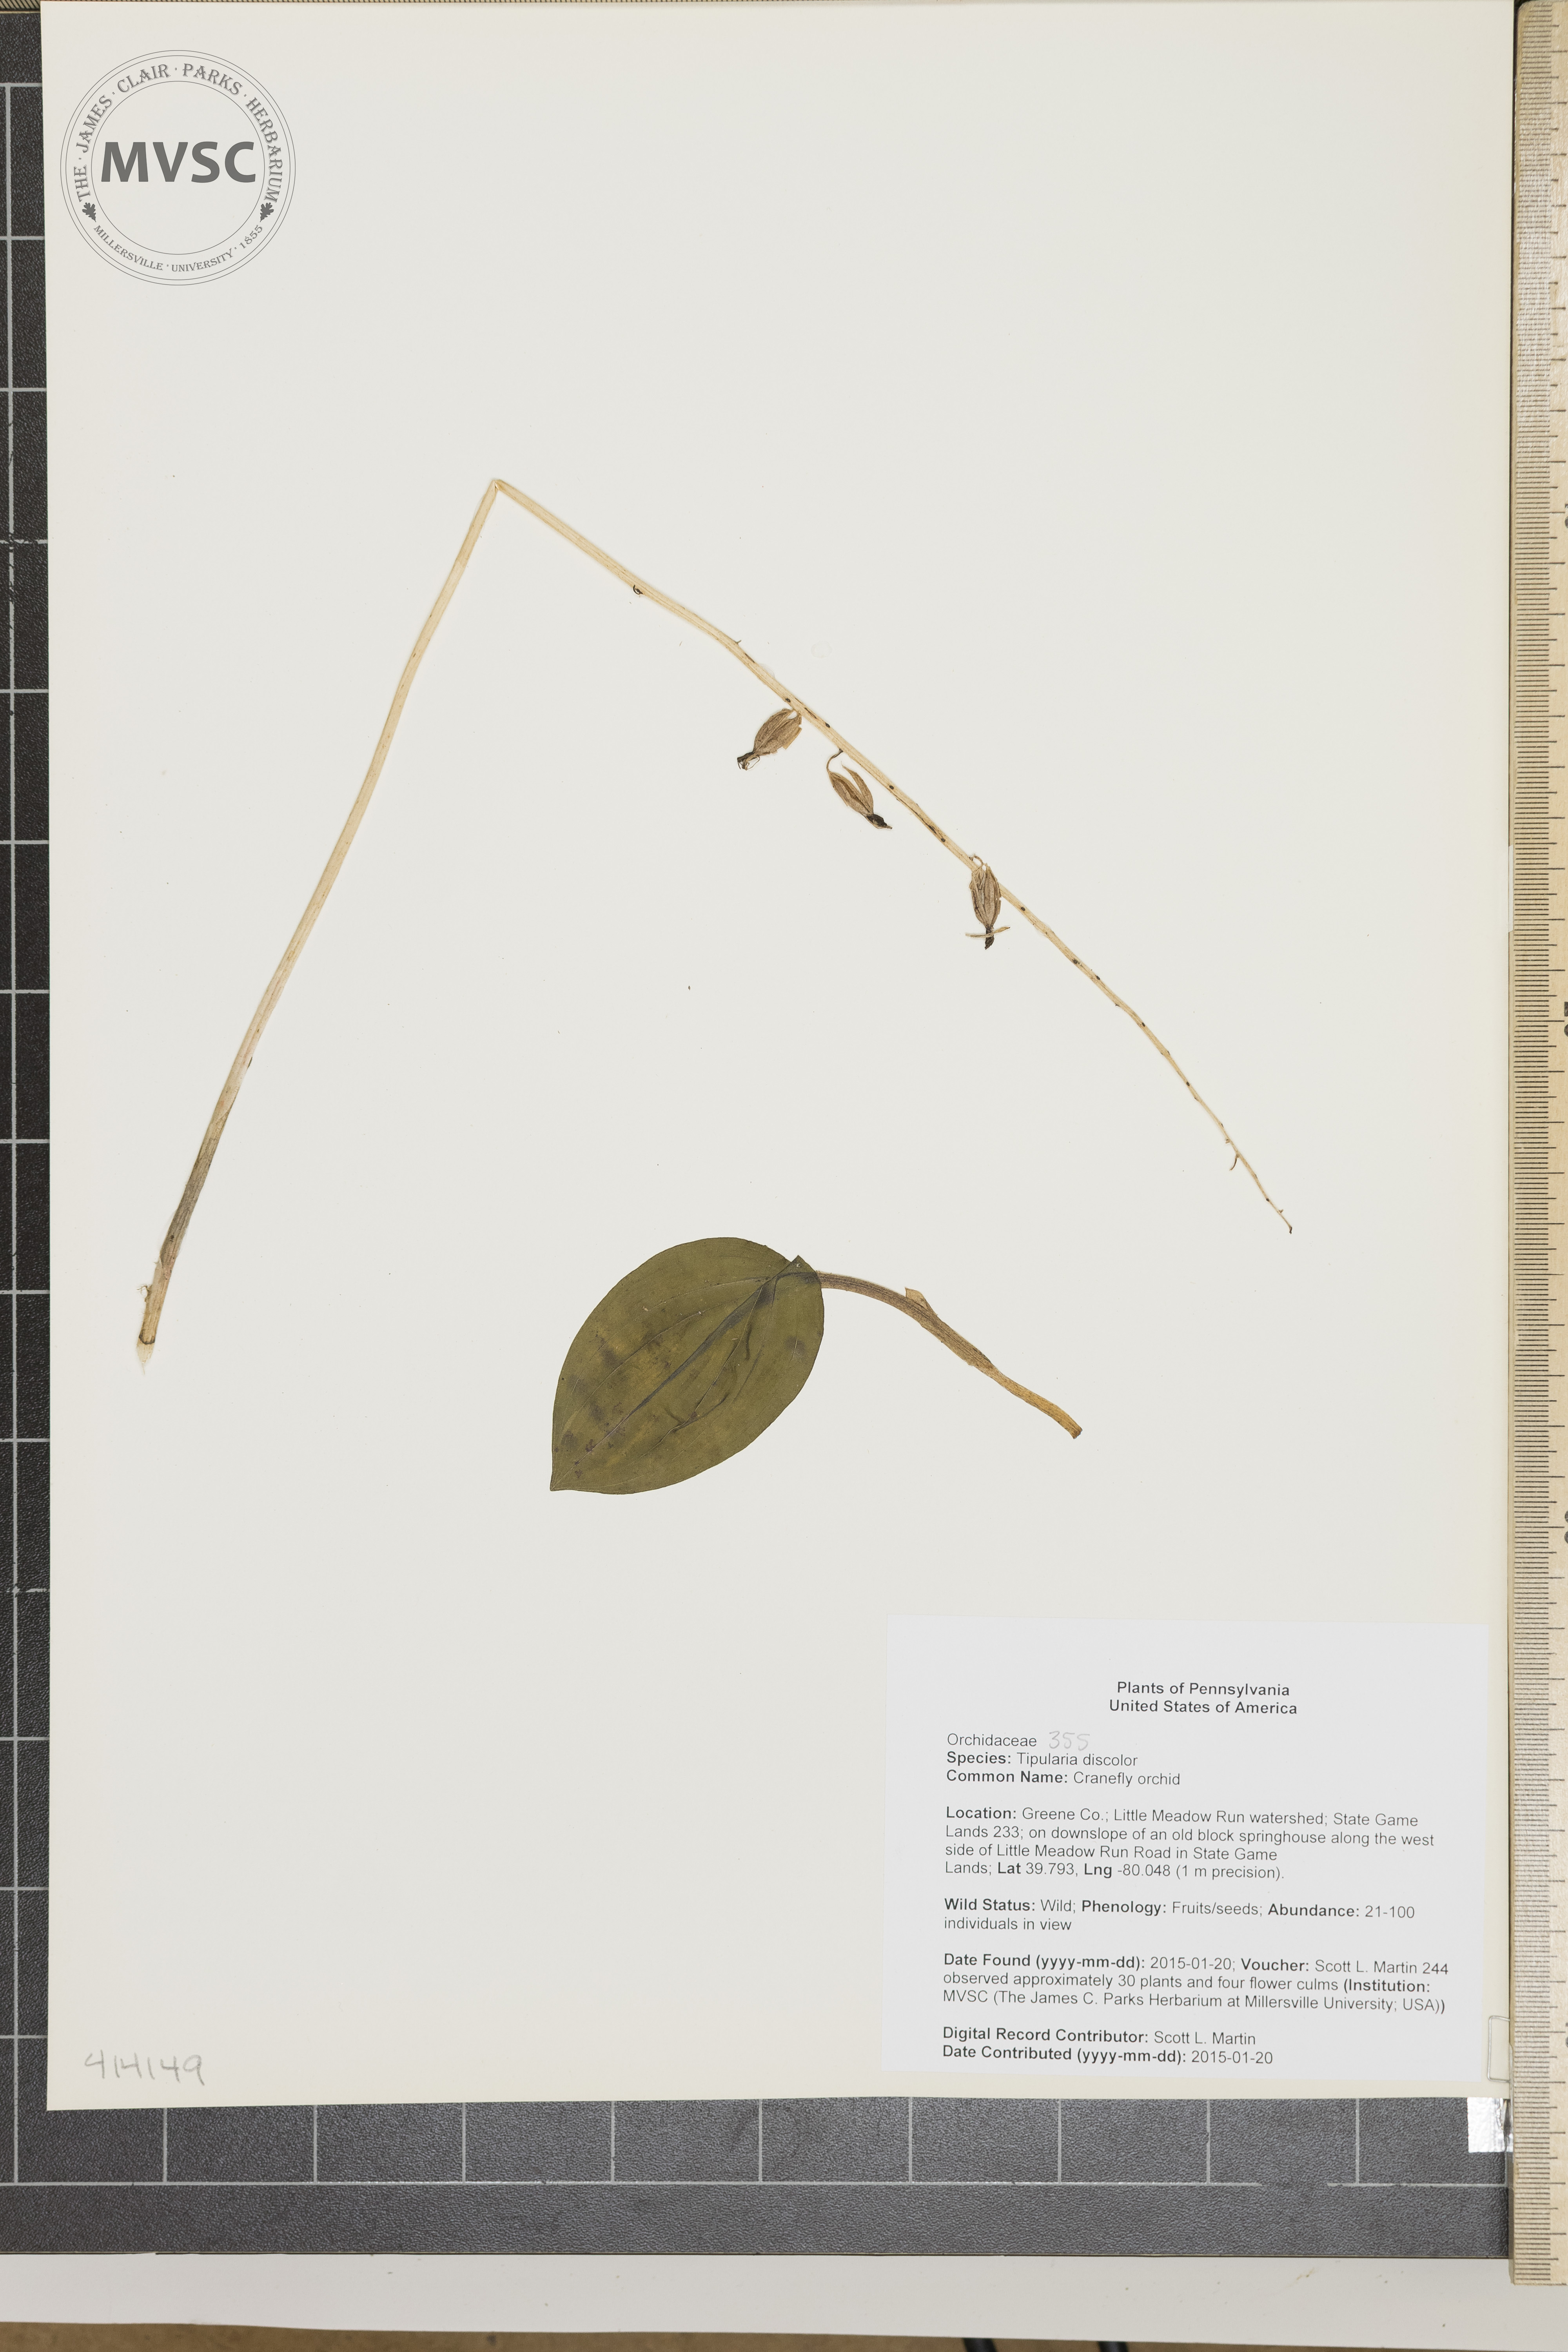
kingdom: Plantae
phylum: Tracheophyta
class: Liliopsida
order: Asparagales
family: Orchidaceae
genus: Tipularia
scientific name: Tipularia discolor
